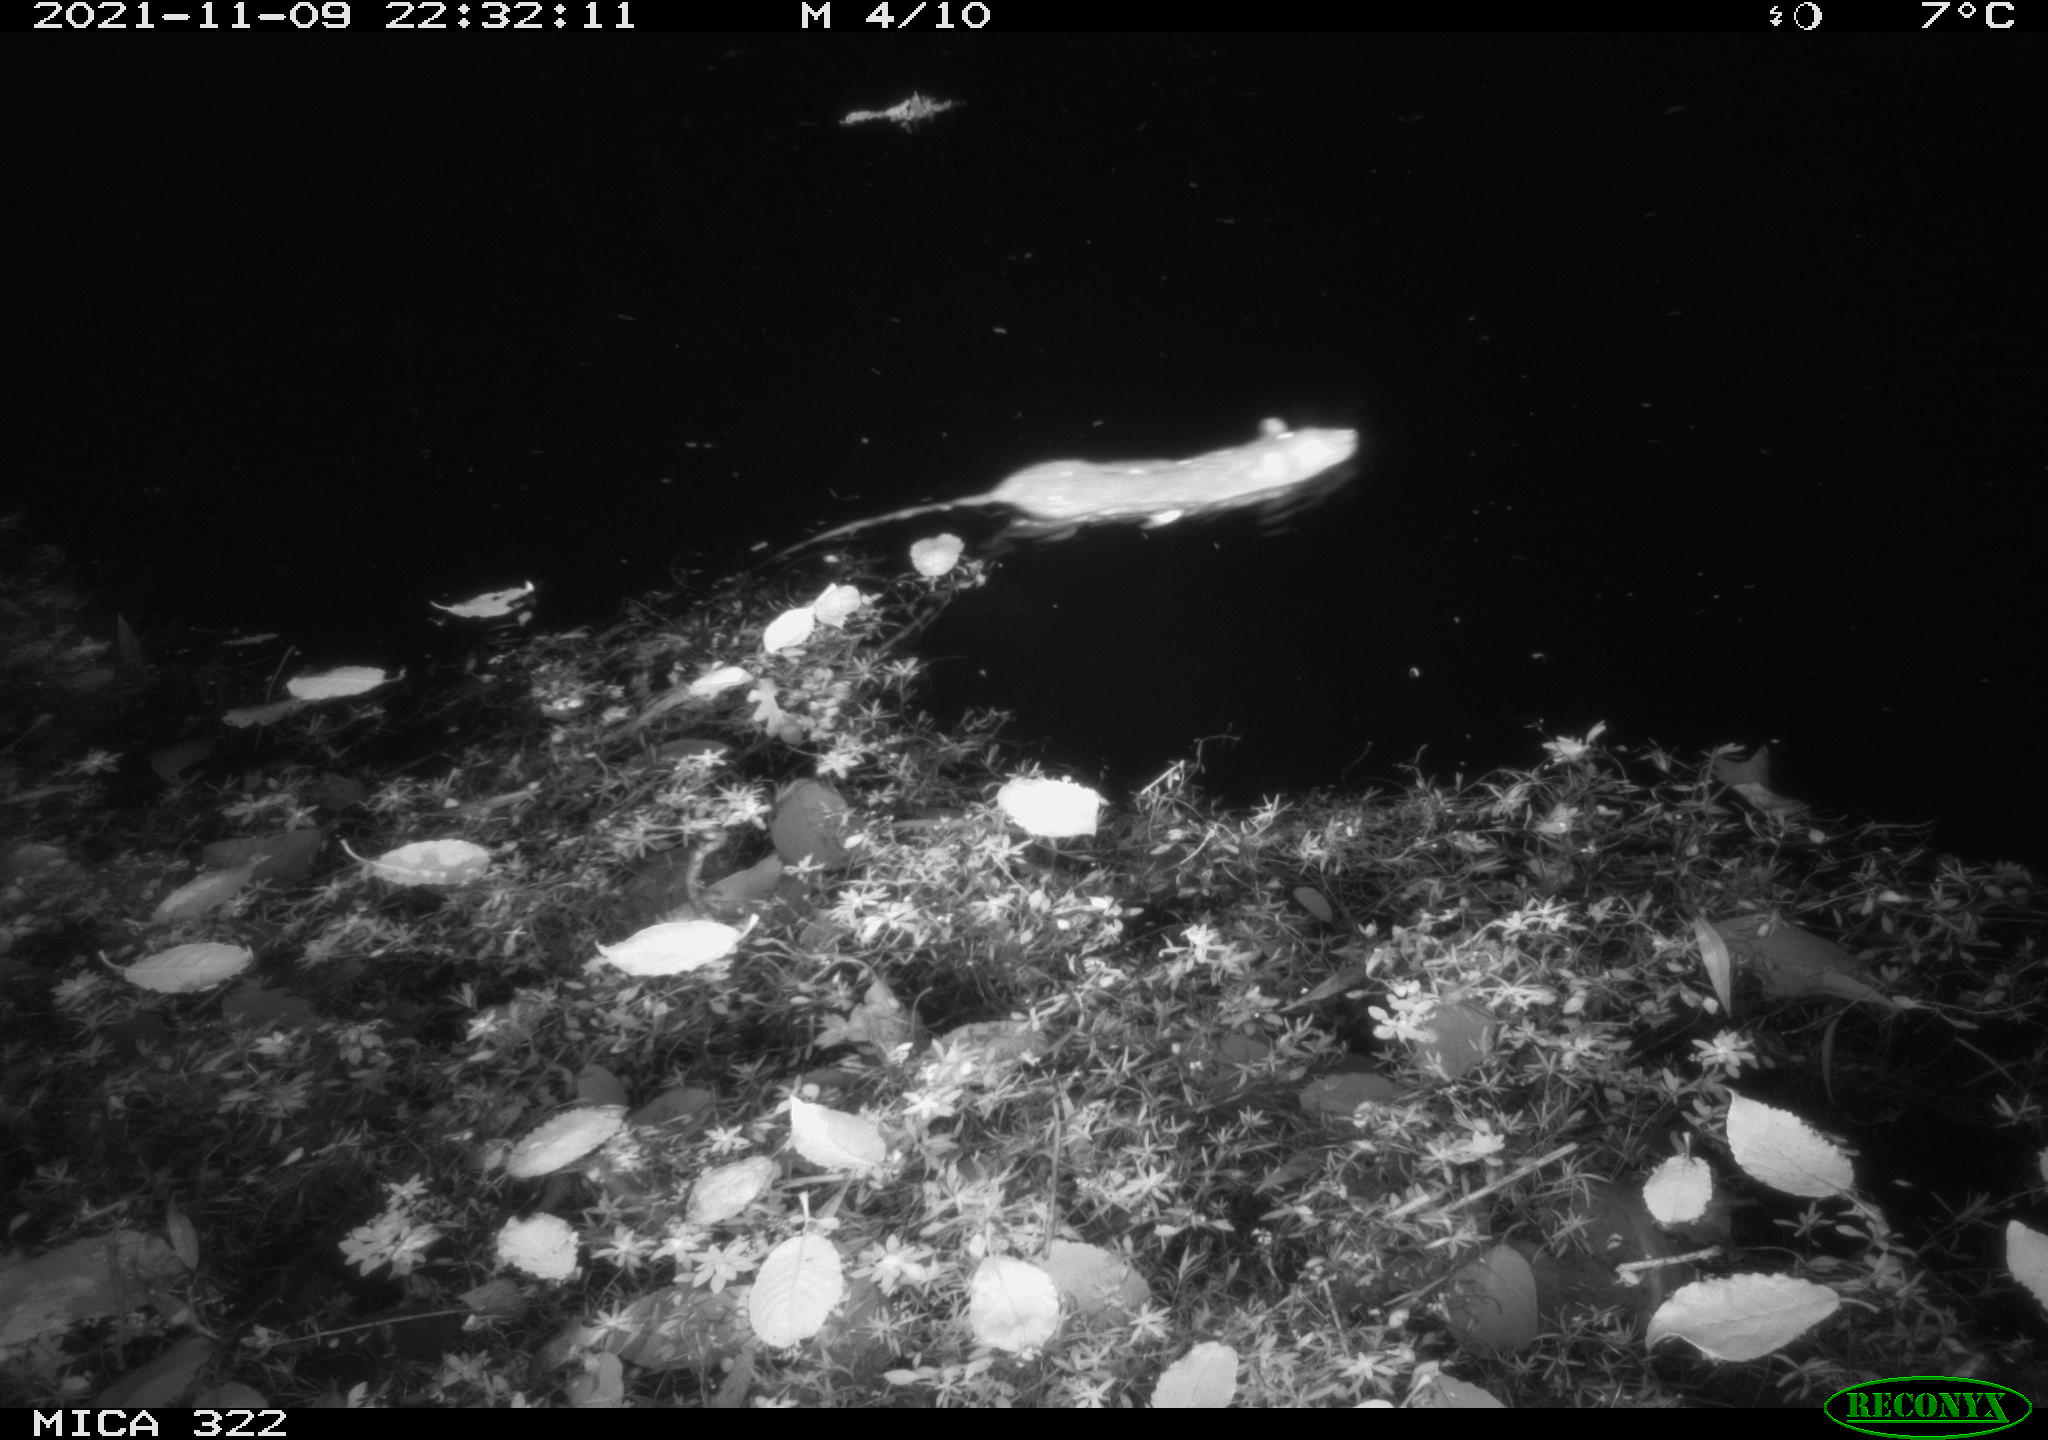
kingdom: Animalia
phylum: Chordata
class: Mammalia
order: Rodentia
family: Muridae
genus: Rattus
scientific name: Rattus norvegicus
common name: Brown rat
